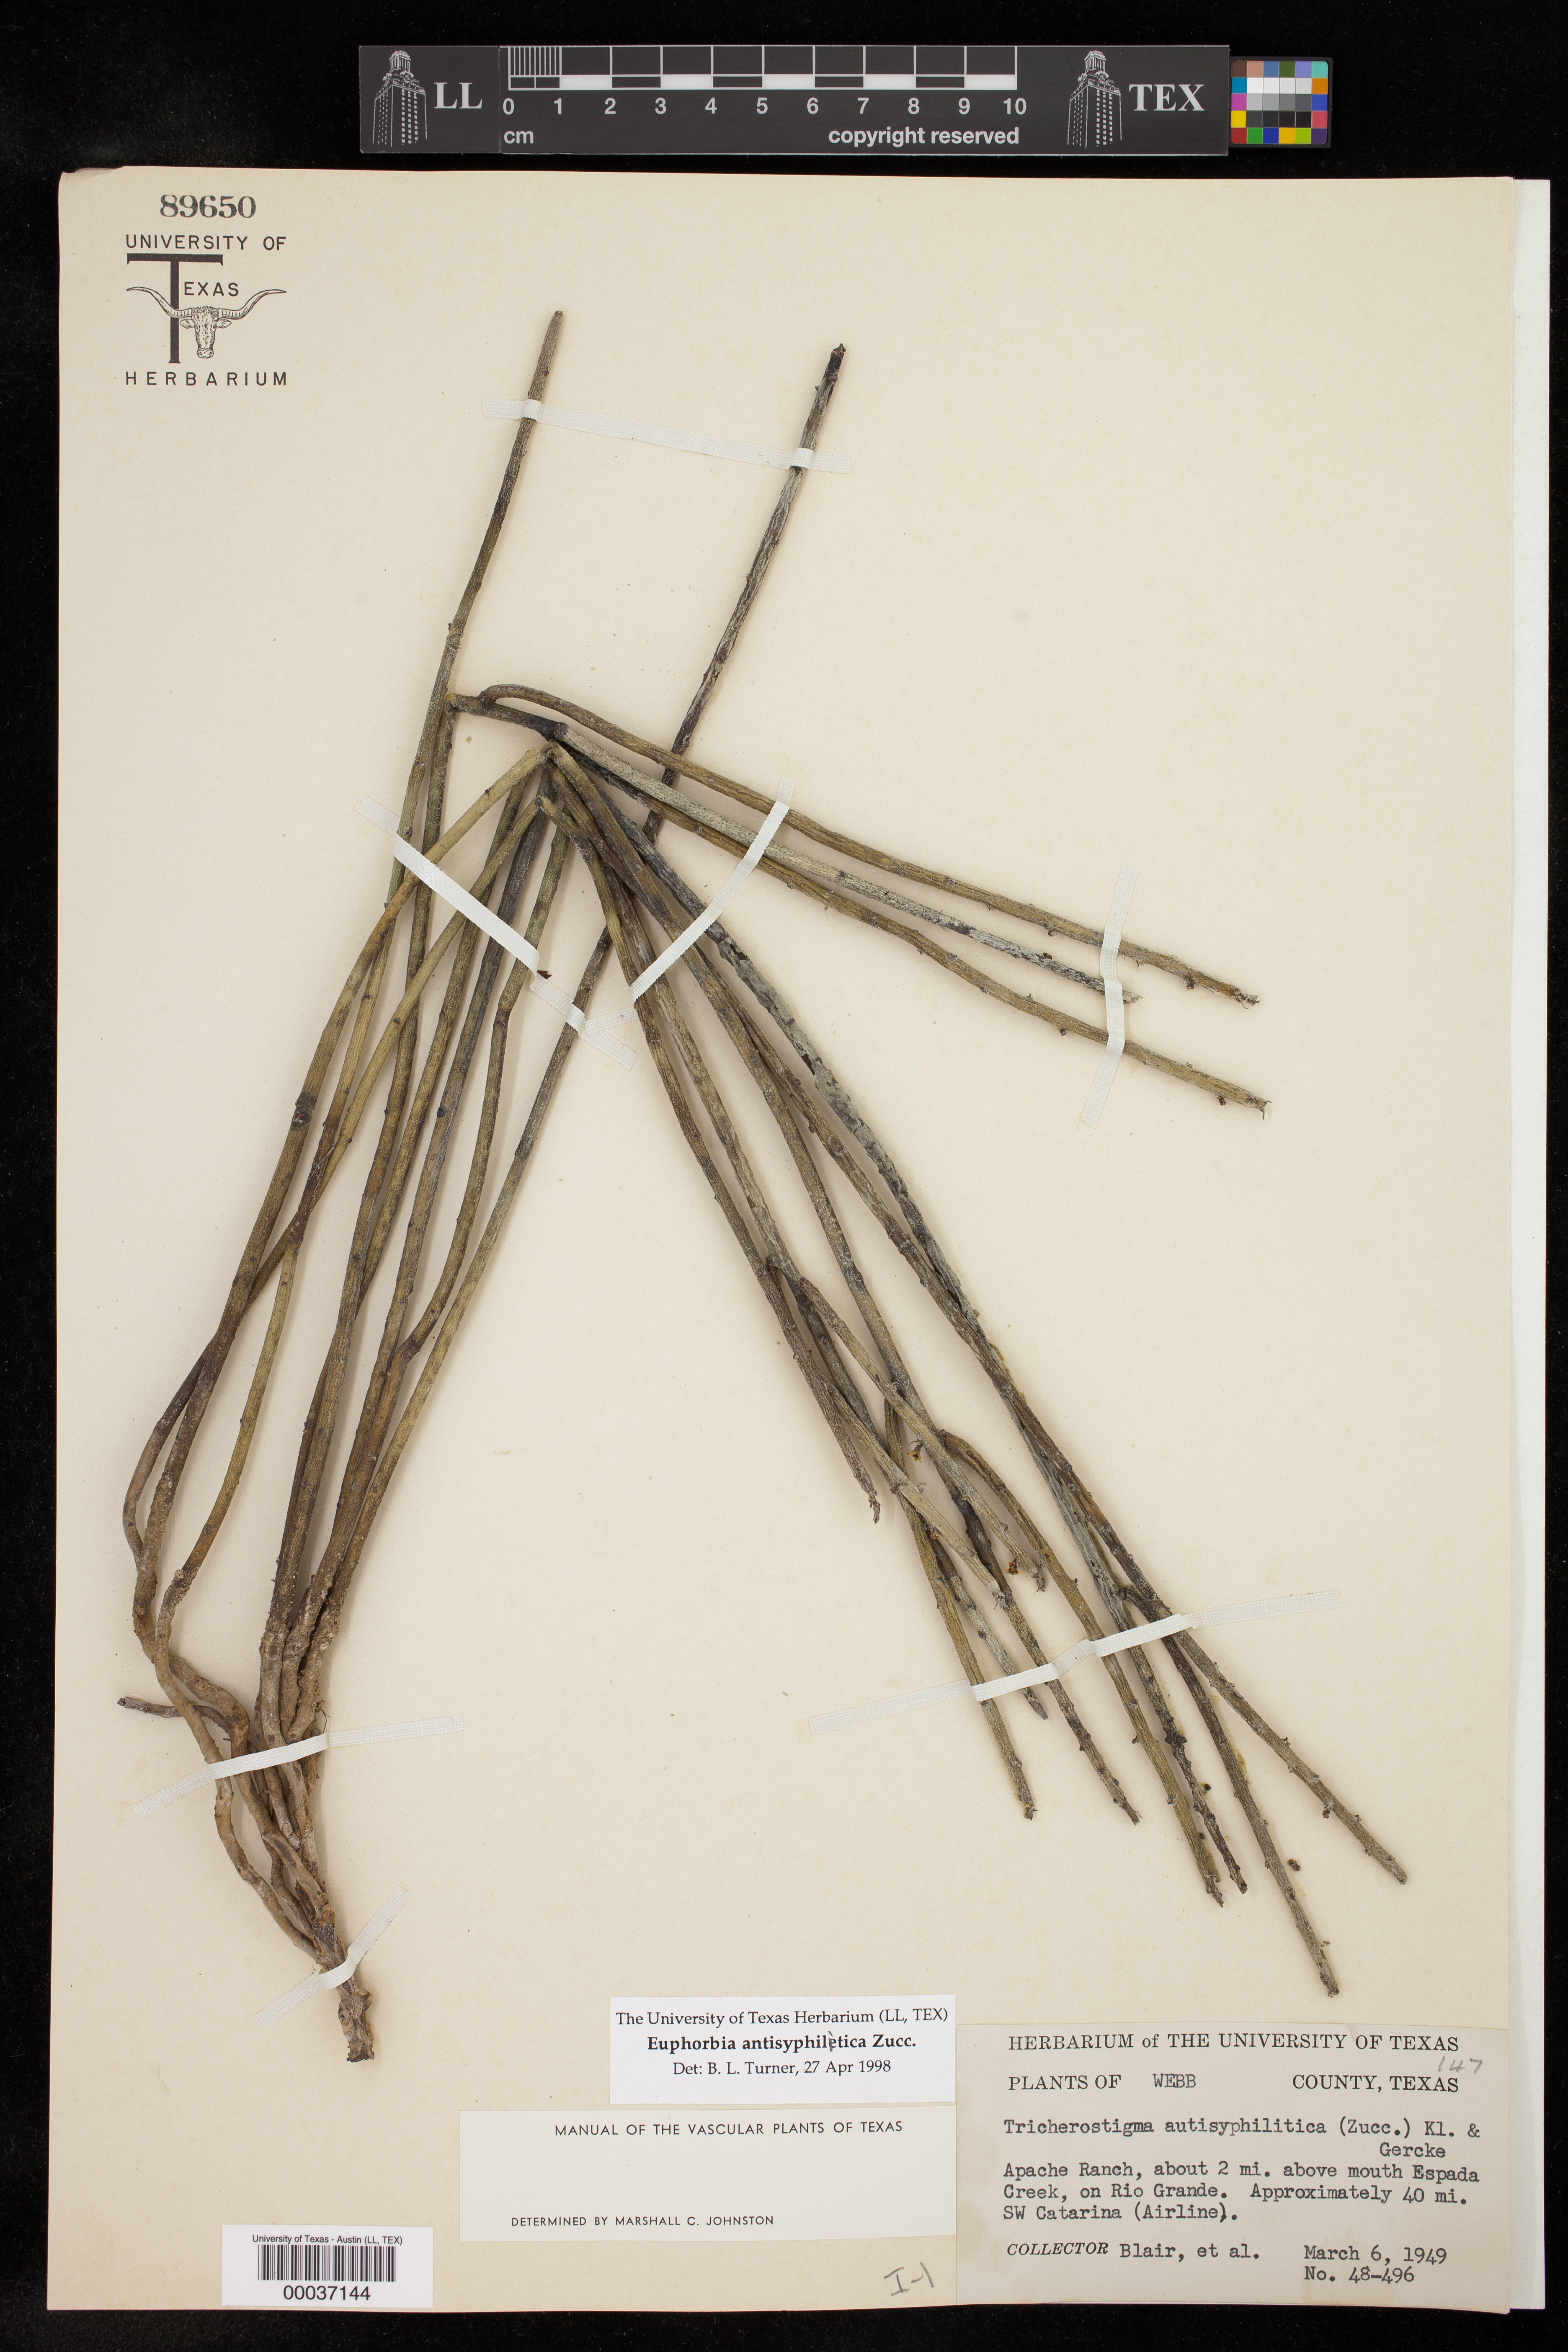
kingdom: Plantae
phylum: Tracheophyta
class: Magnoliopsida
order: Malpighiales
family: Euphorbiaceae
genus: Euphorbia
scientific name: Euphorbia antisyphilitica
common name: Candelilla
